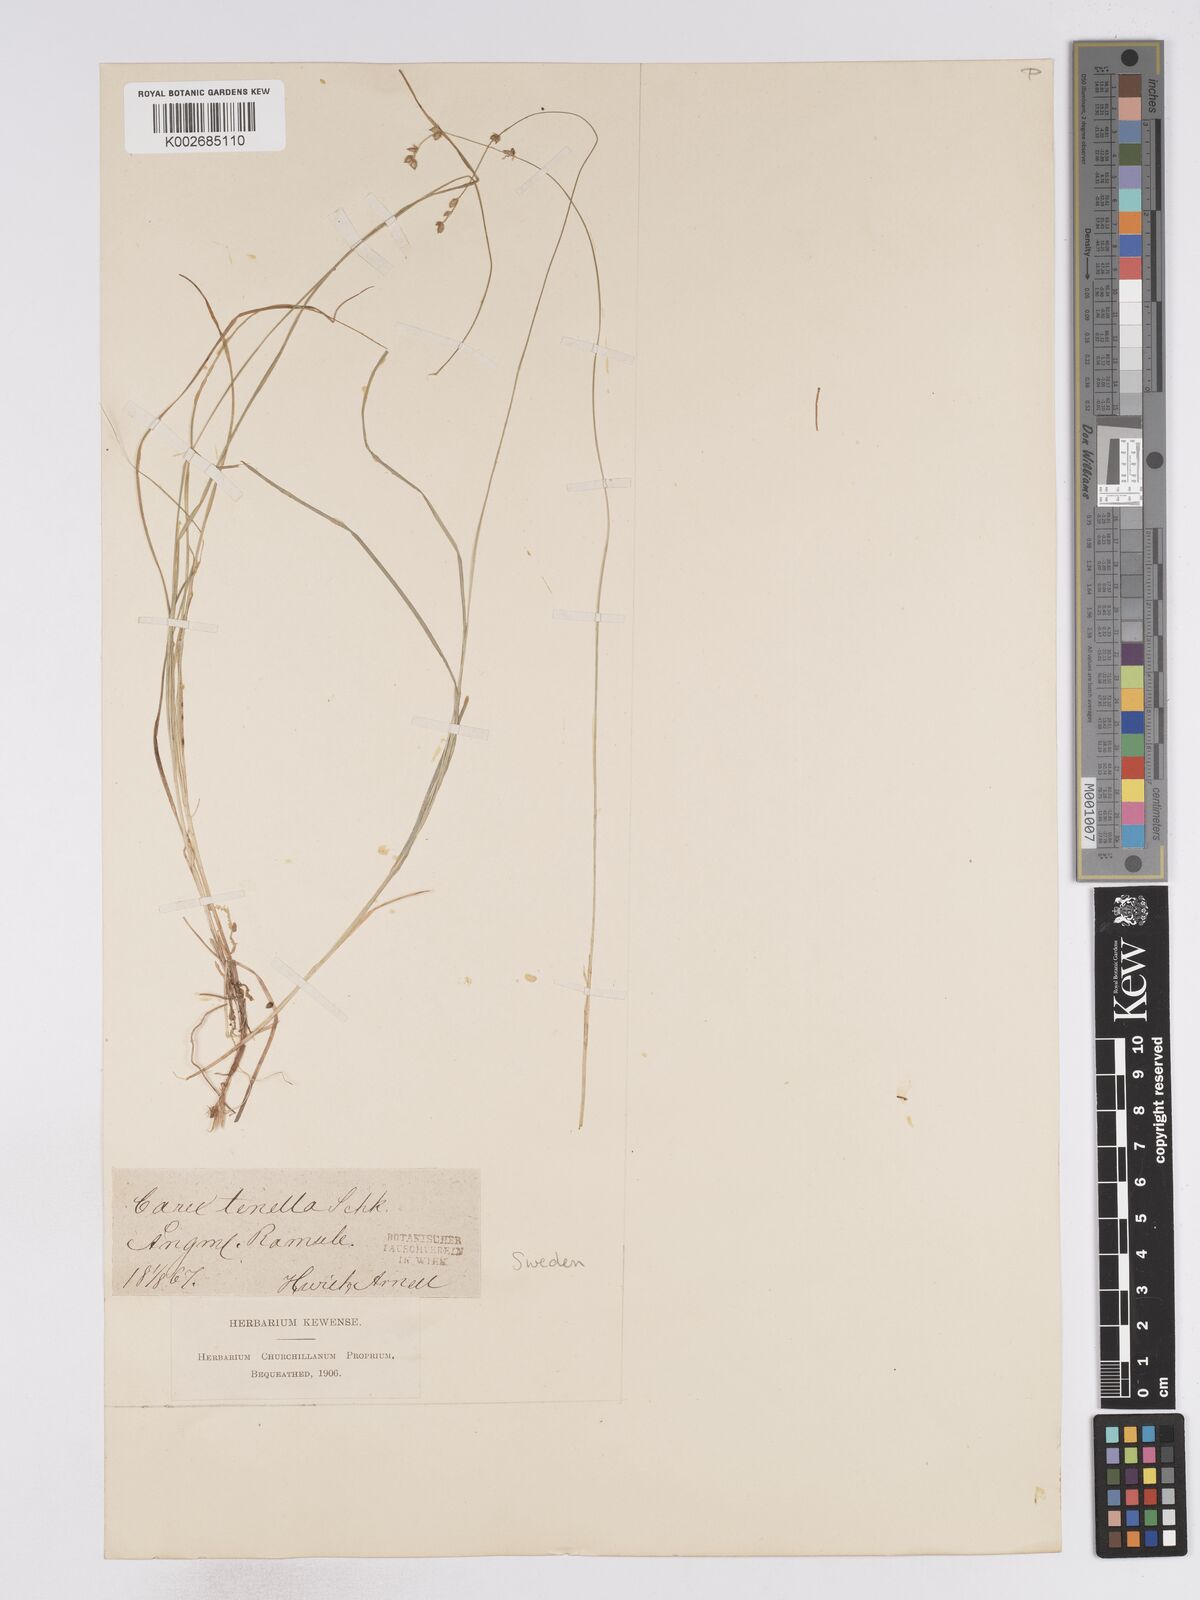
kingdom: Plantae
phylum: Tracheophyta
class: Liliopsida
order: Poales
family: Cyperaceae
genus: Carex
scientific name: Carex disperma
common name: Short-leaved sedge
